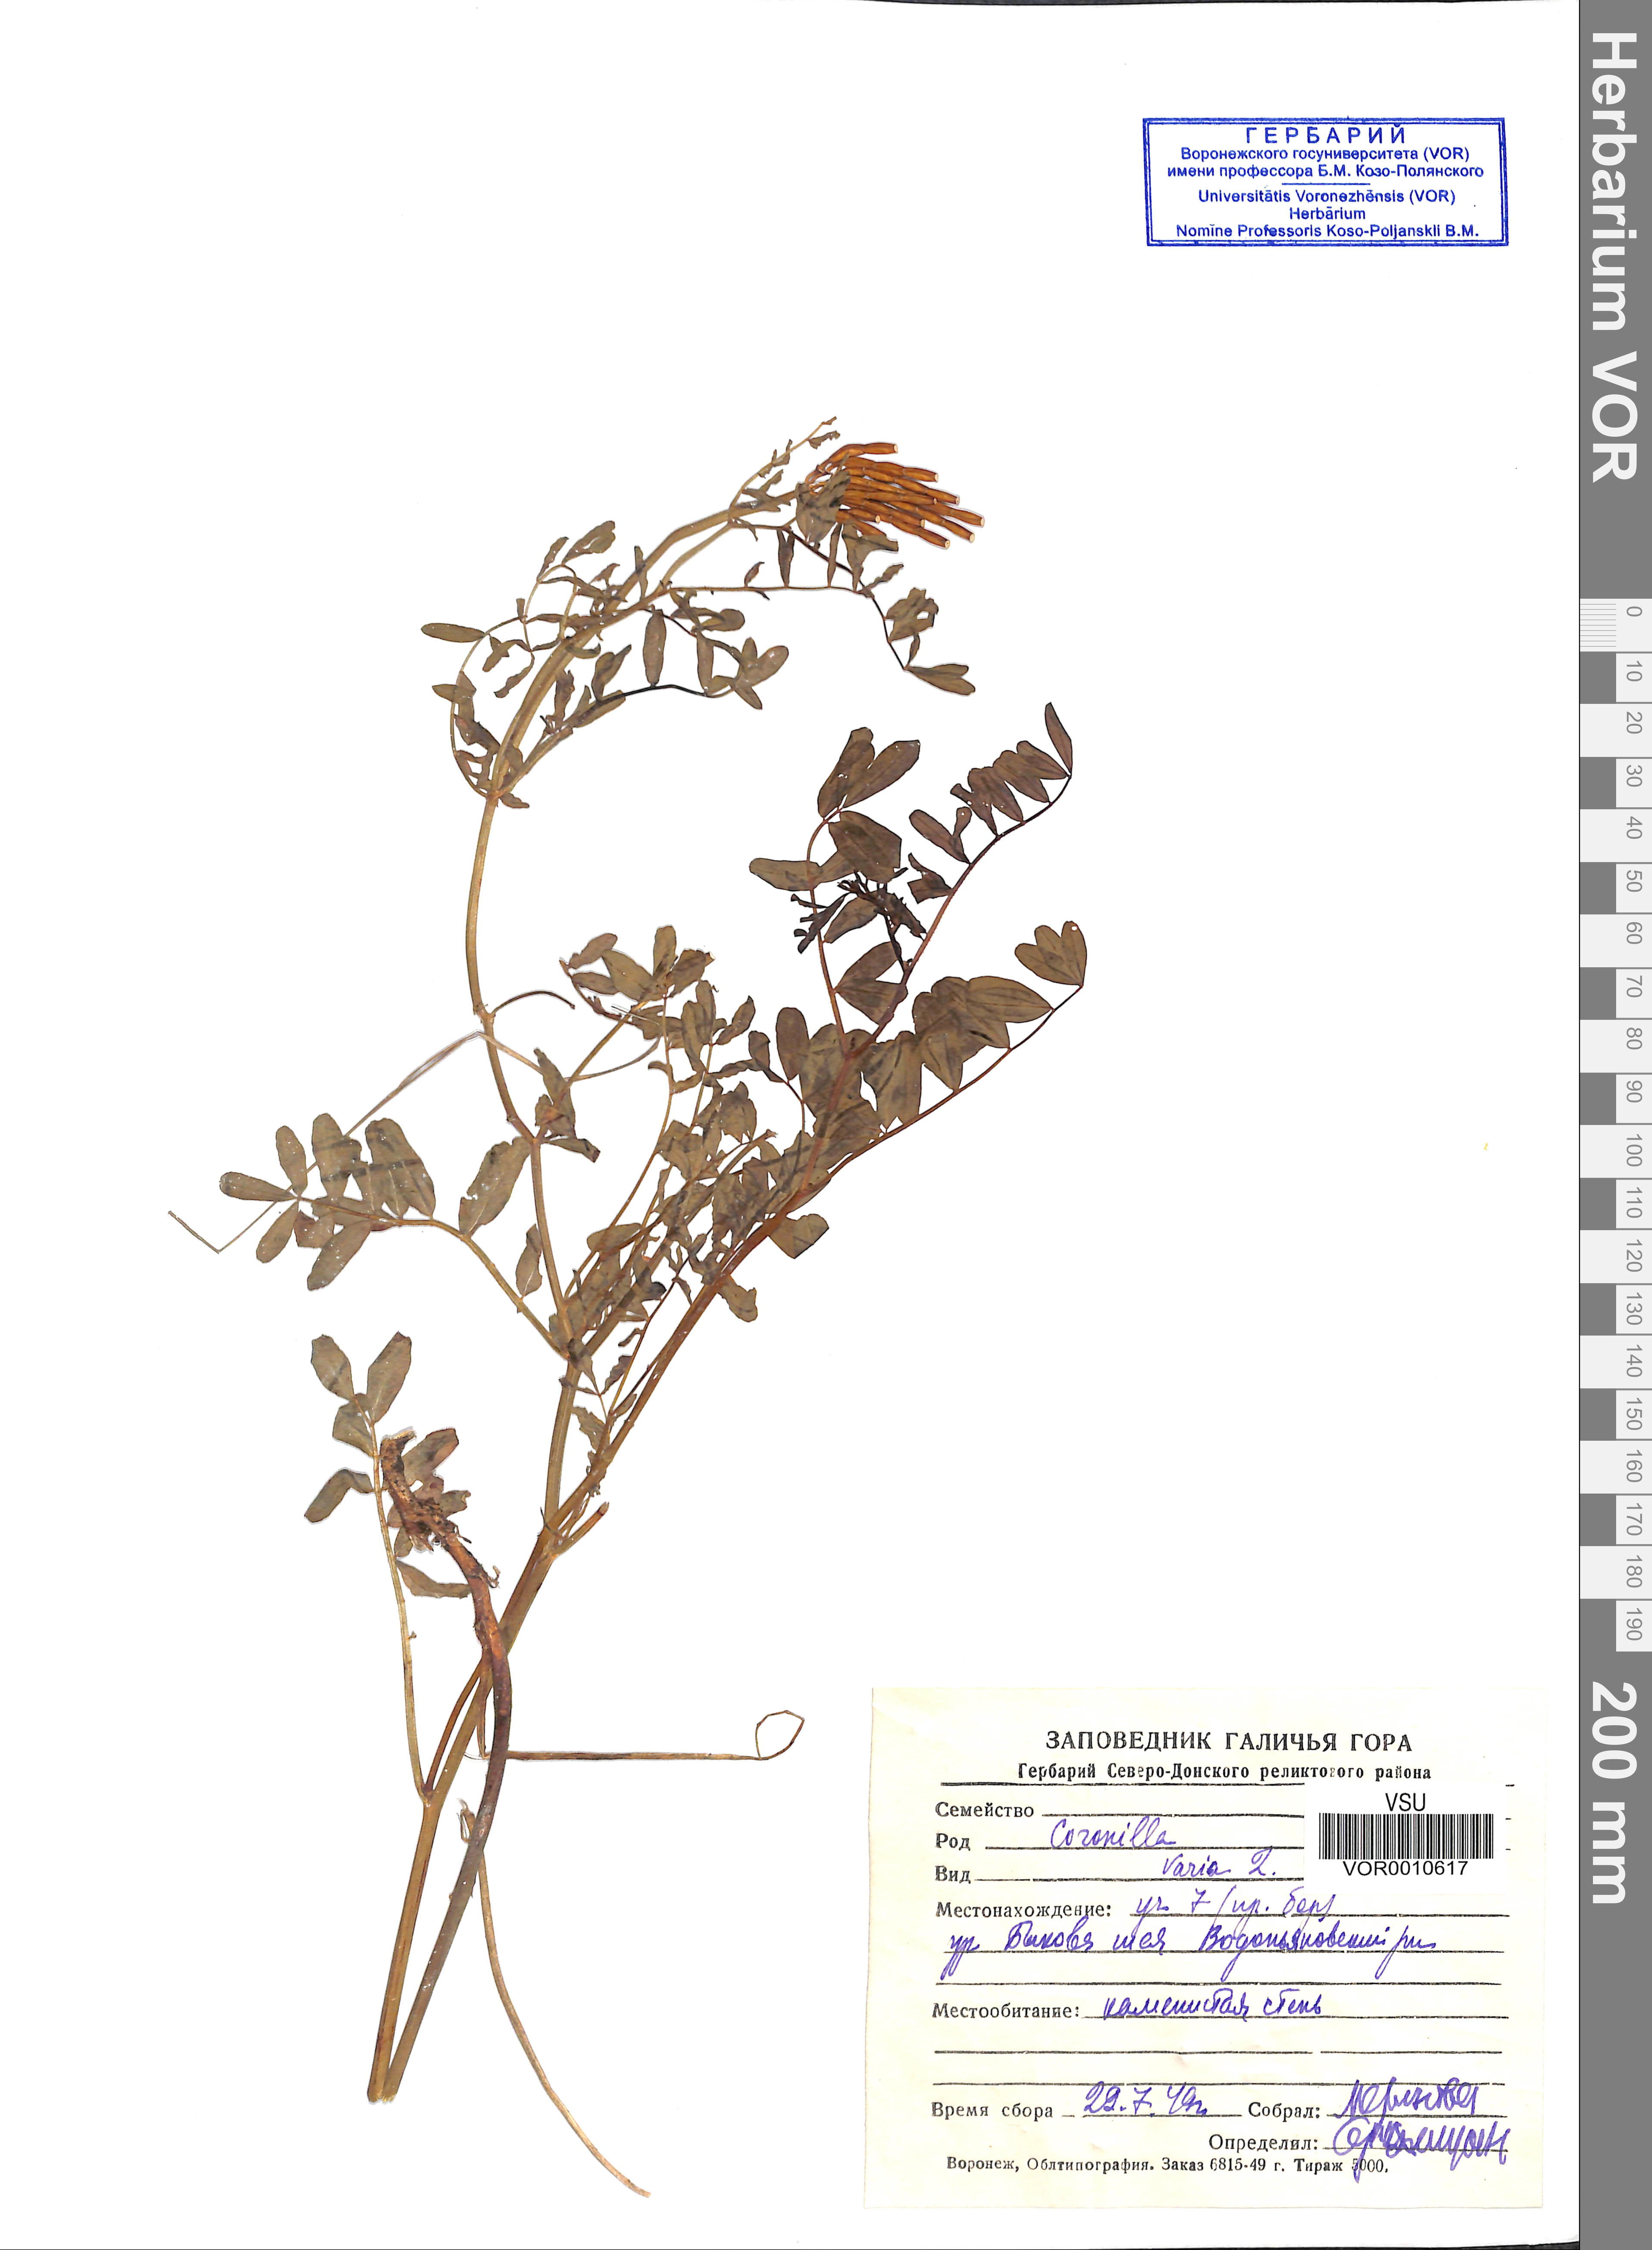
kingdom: Plantae
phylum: Tracheophyta
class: Magnoliopsida
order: Fabales
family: Fabaceae
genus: Coronilla
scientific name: Coronilla varia
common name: Crownvetch
